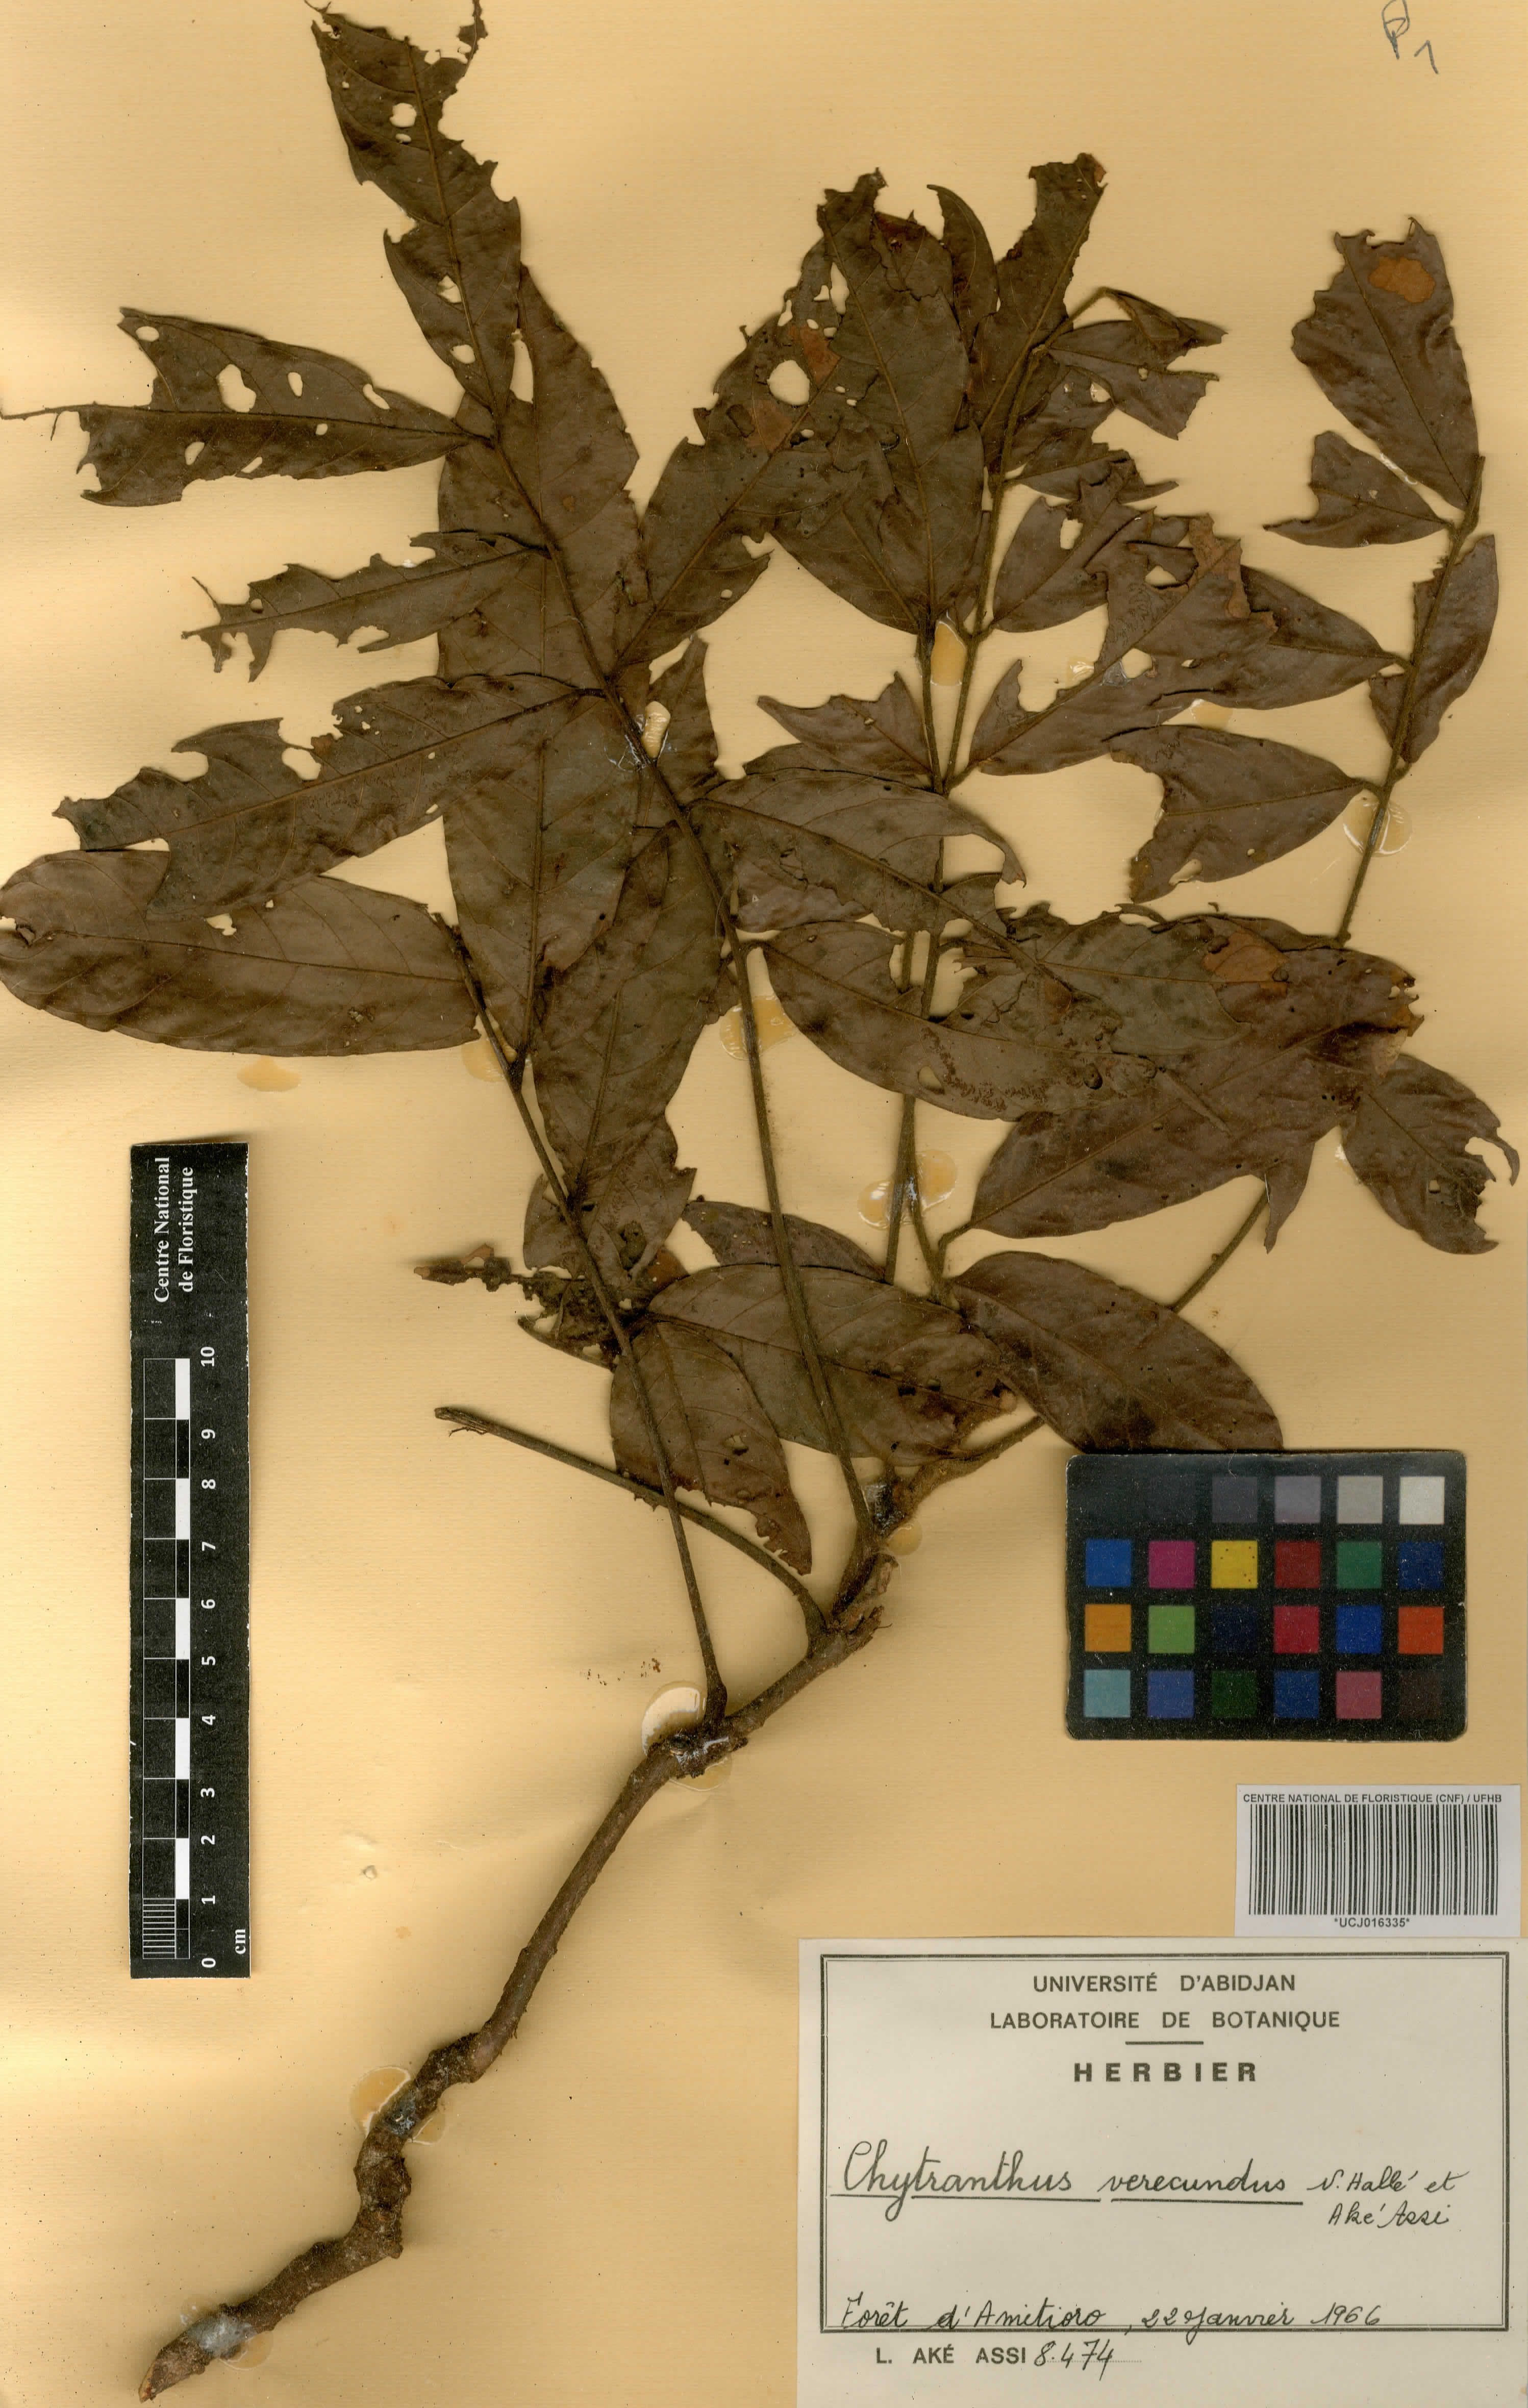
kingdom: Plantae
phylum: Tracheophyta
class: Magnoliopsida
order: Sapindales
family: Sapindaceae
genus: Chytranthus
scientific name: Chytranthus verecundus
